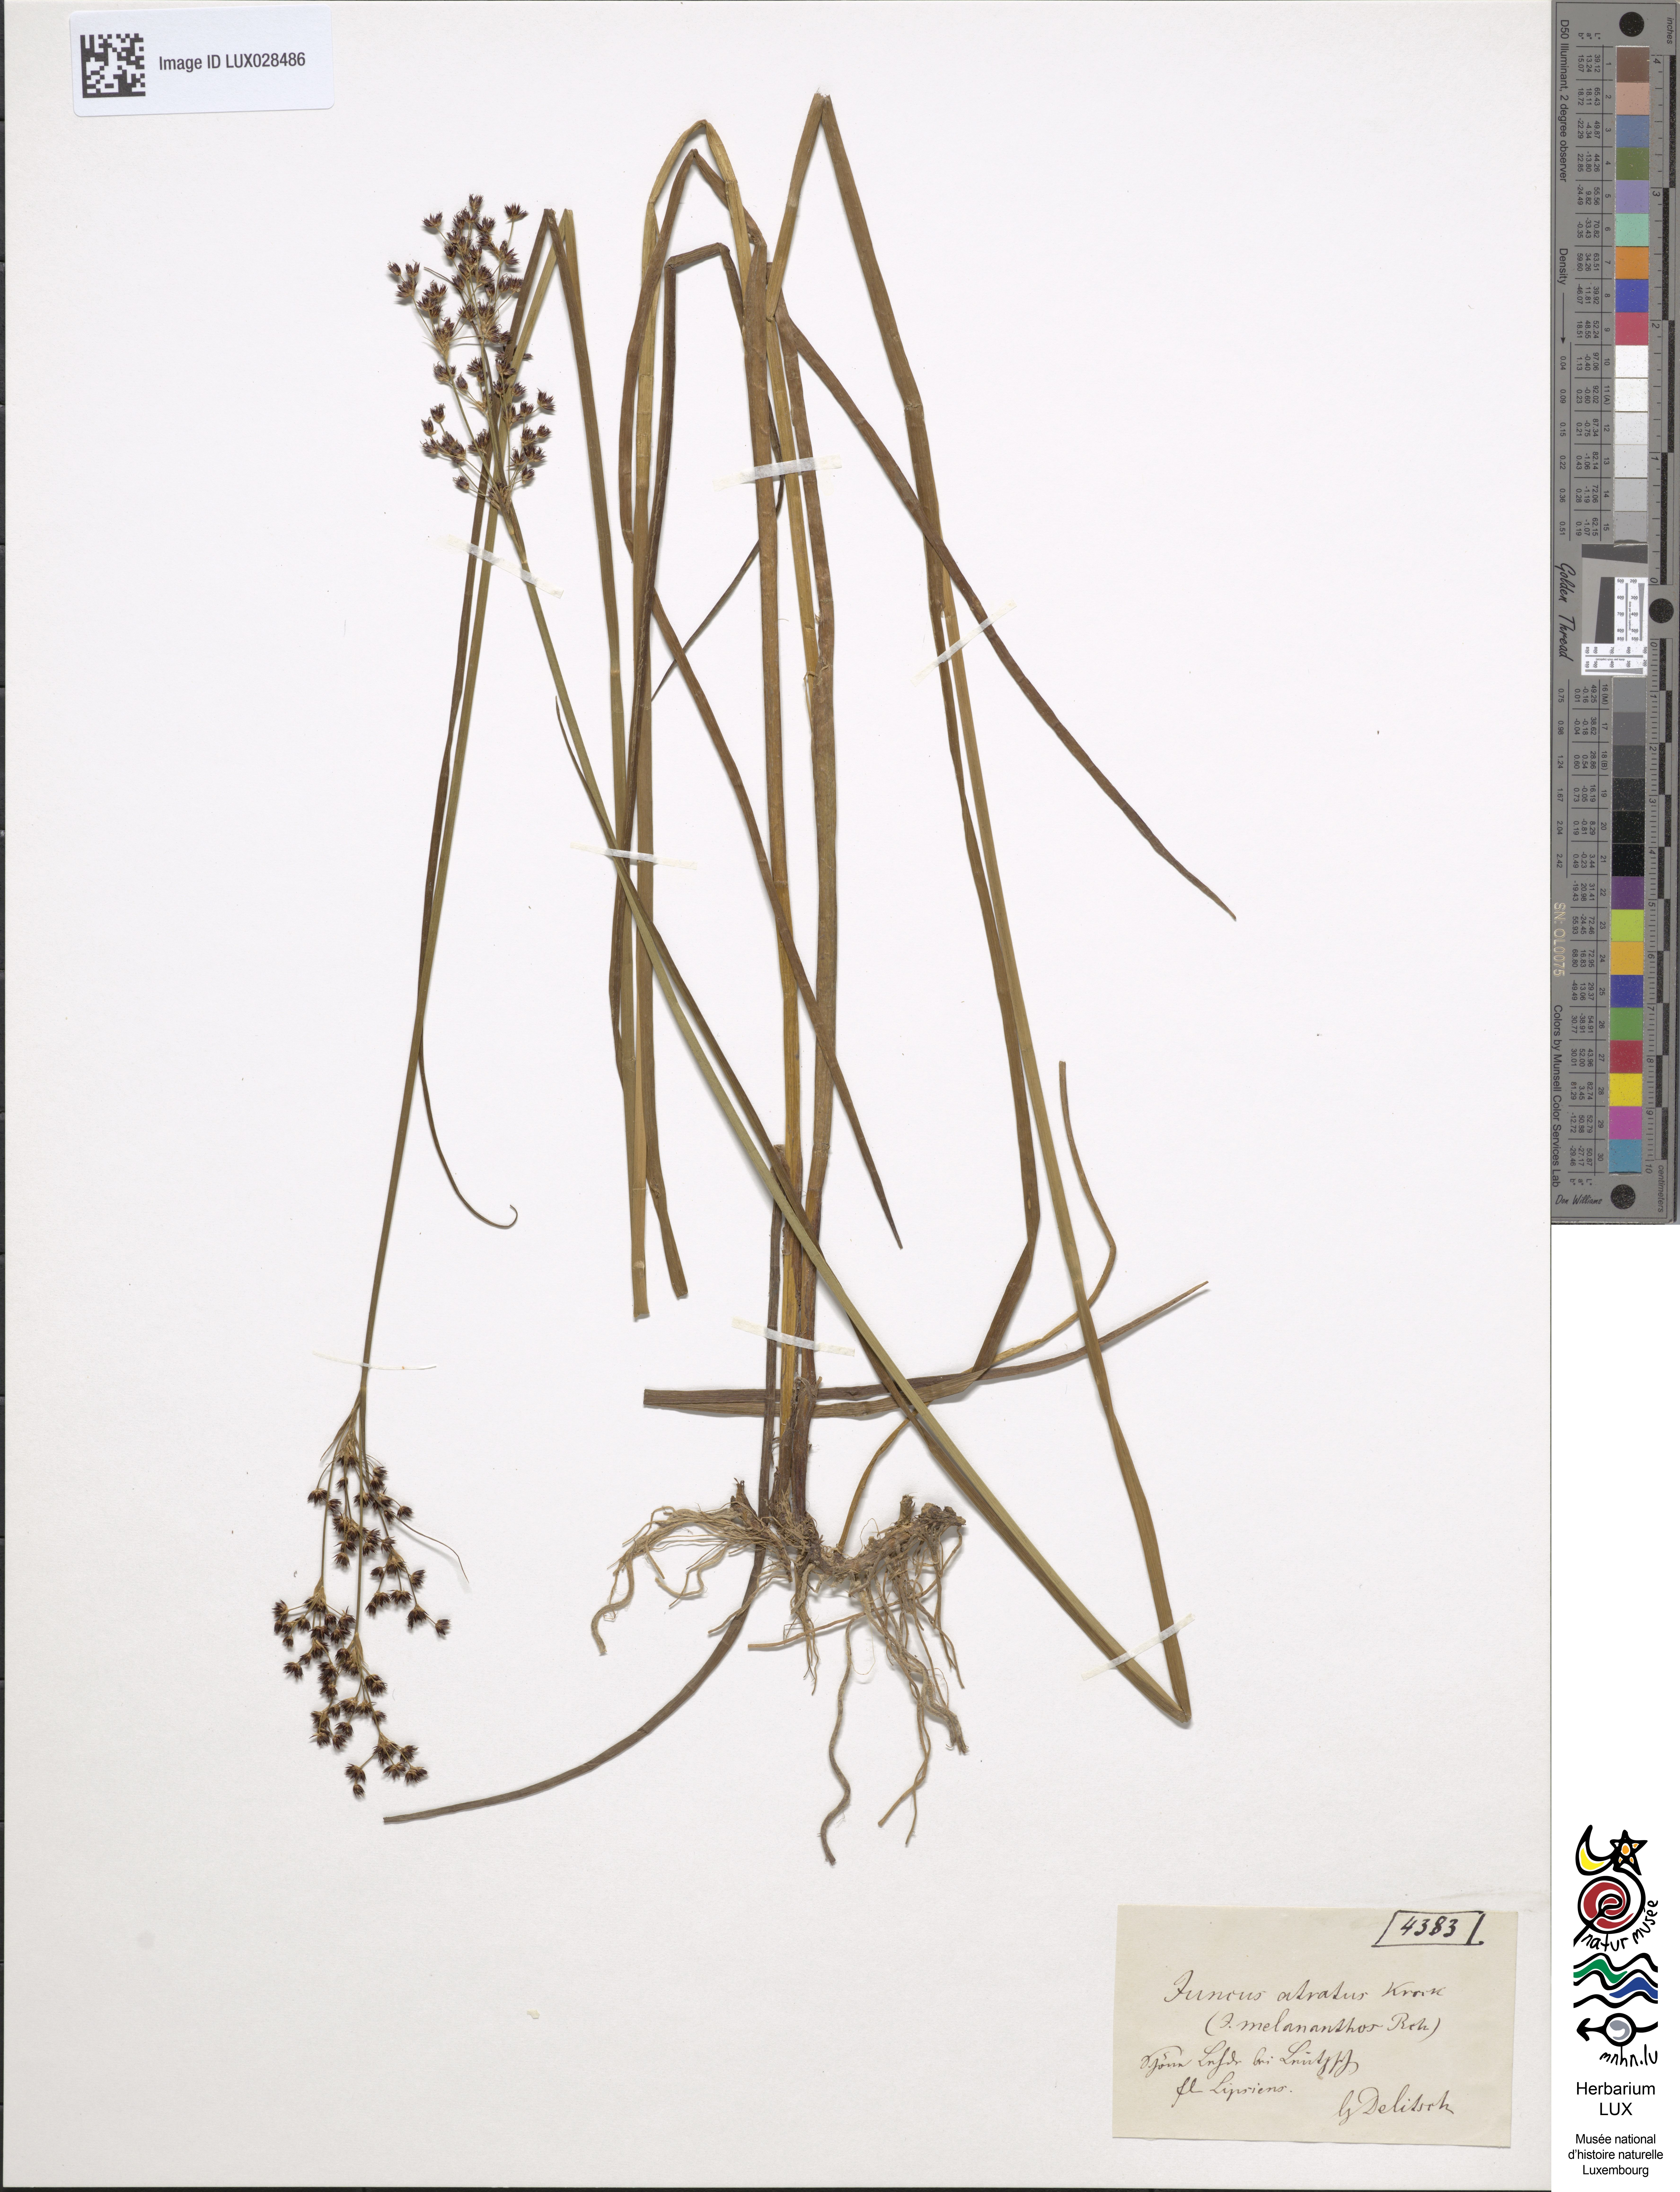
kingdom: Plantae
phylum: Tracheophyta
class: Liliopsida
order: Poales
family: Juncaceae
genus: Juncus
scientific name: Juncus atratus
